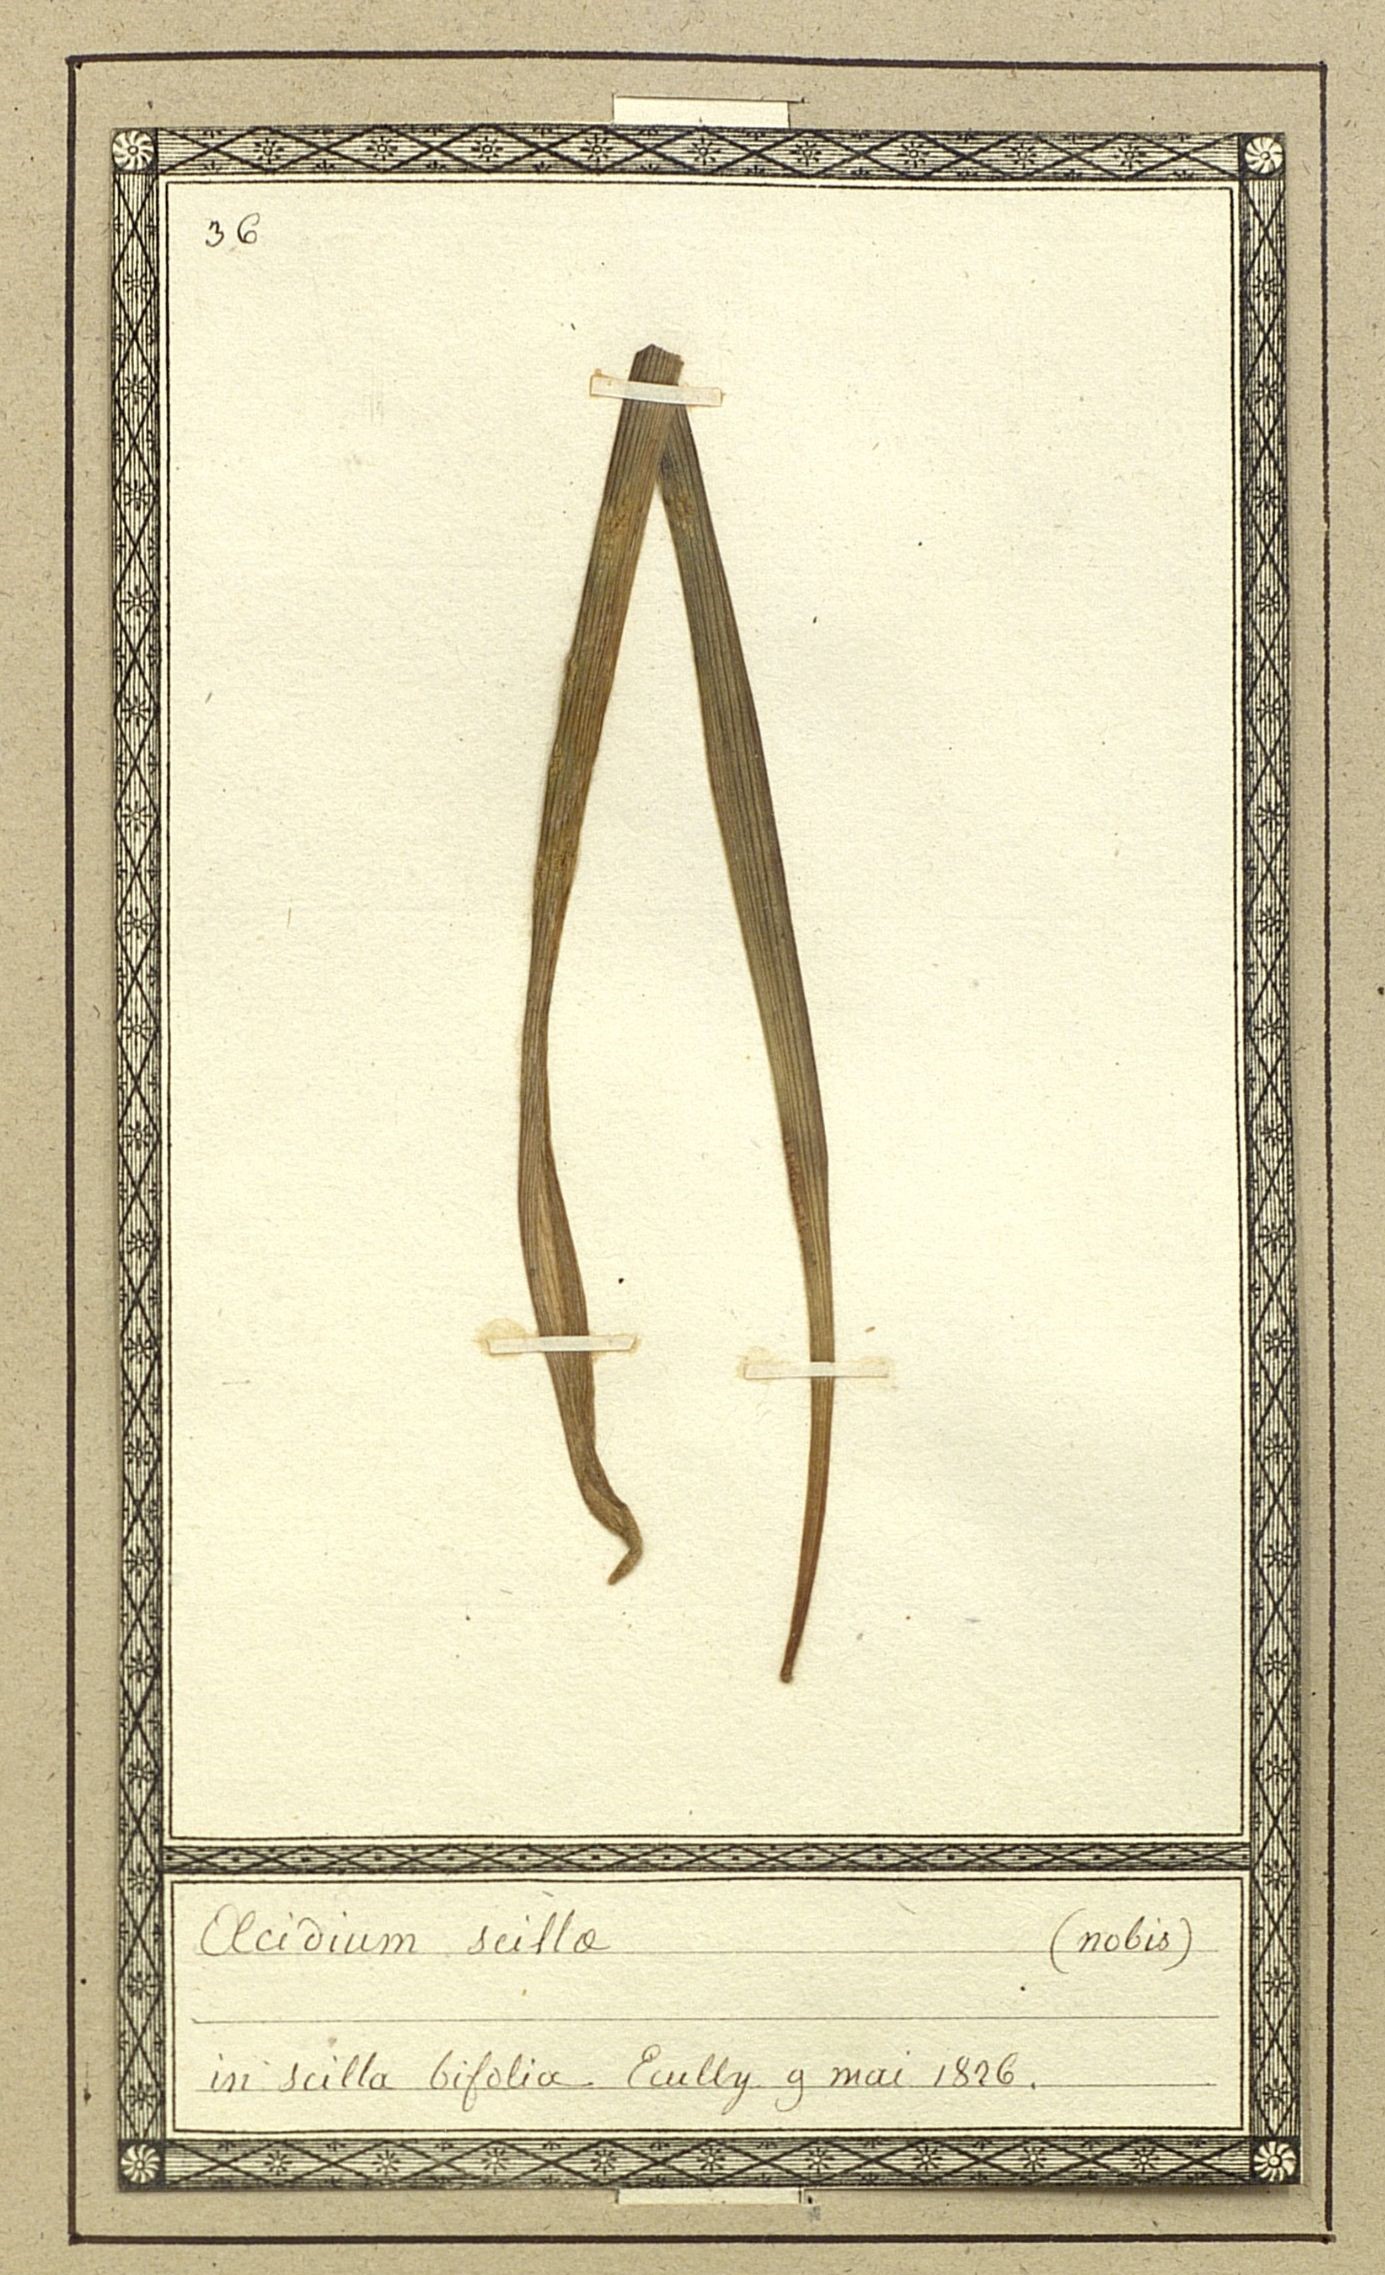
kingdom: Fungi
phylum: Basidiomycota
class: Pucciniomycetes
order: Pucciniales
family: Pucciniaceae
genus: Uromyces
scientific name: Uromyces scillinus
